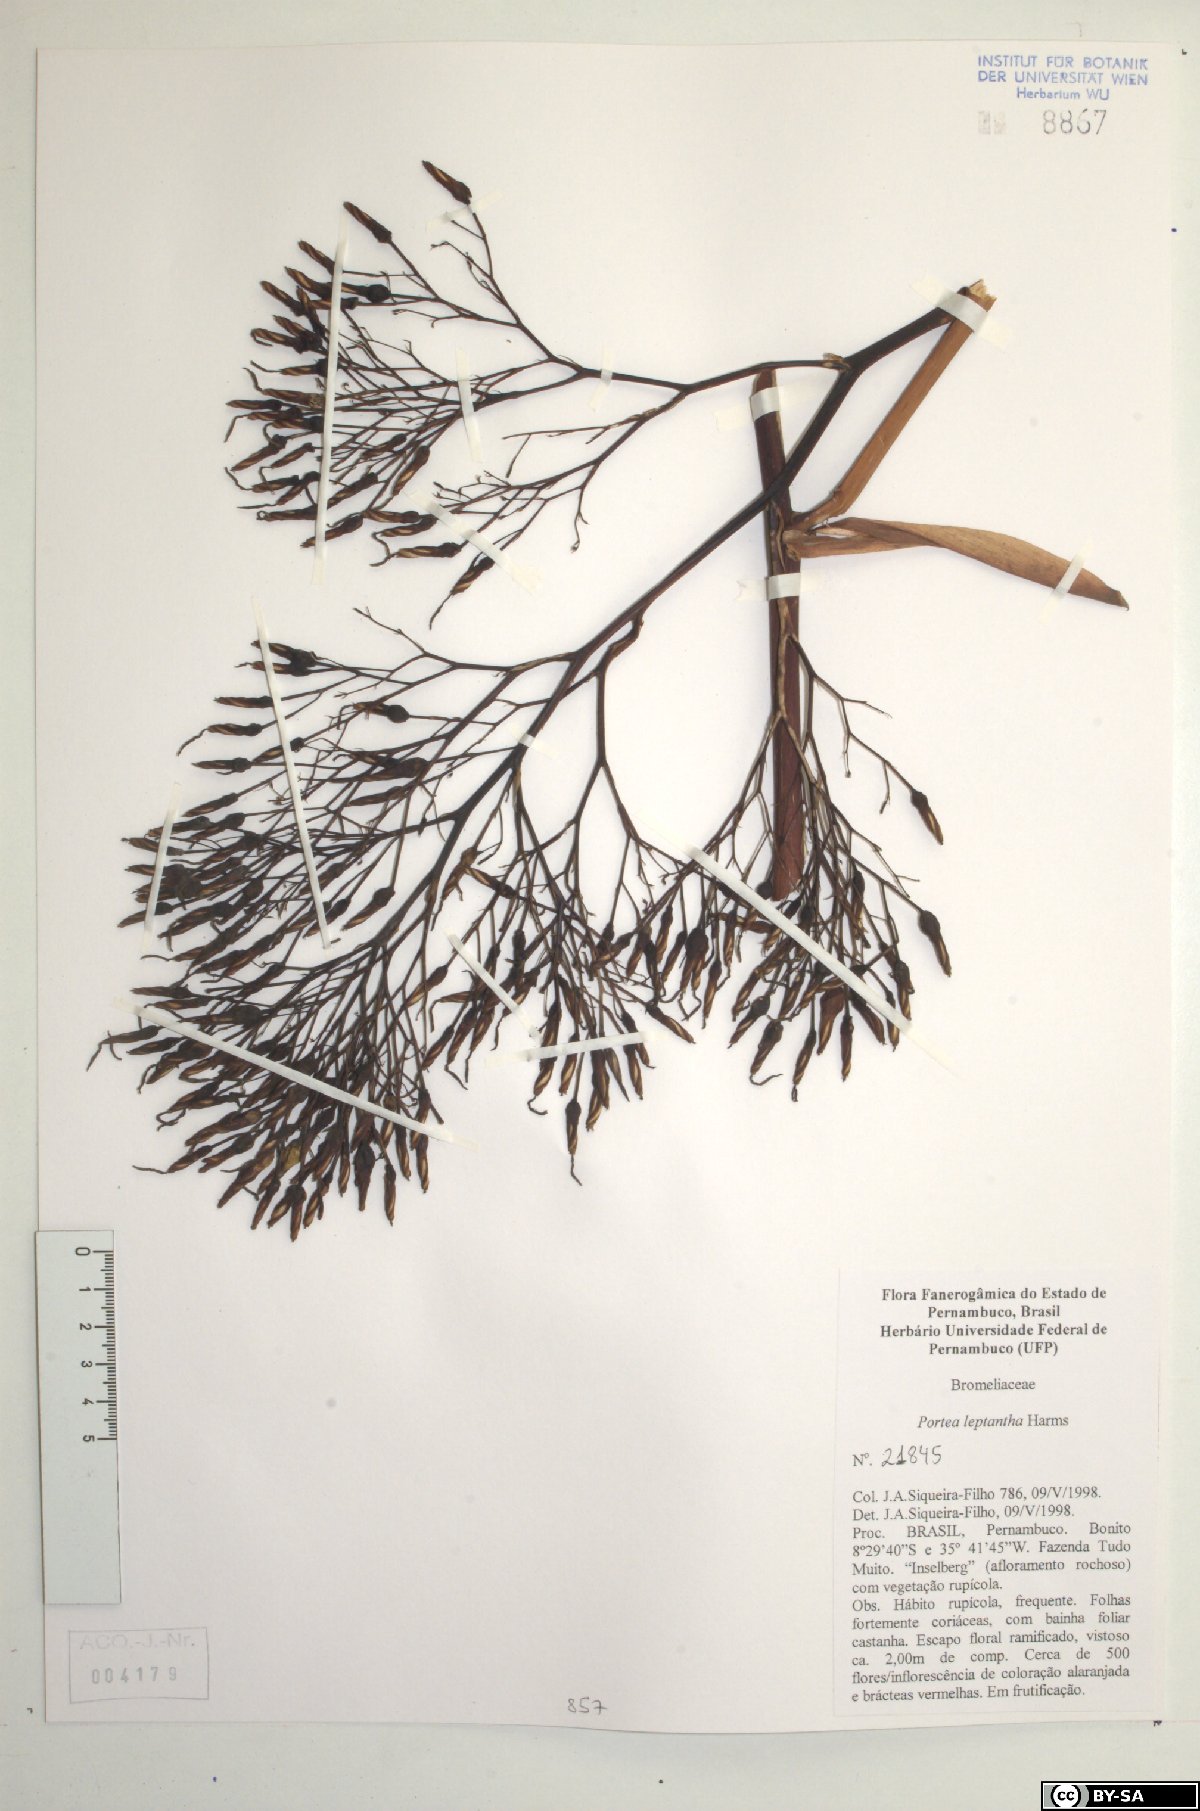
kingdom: Plantae
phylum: Tracheophyta
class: Liliopsida
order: Poales
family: Bromeliaceae
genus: Aechmea
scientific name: Aechmea leptantha
